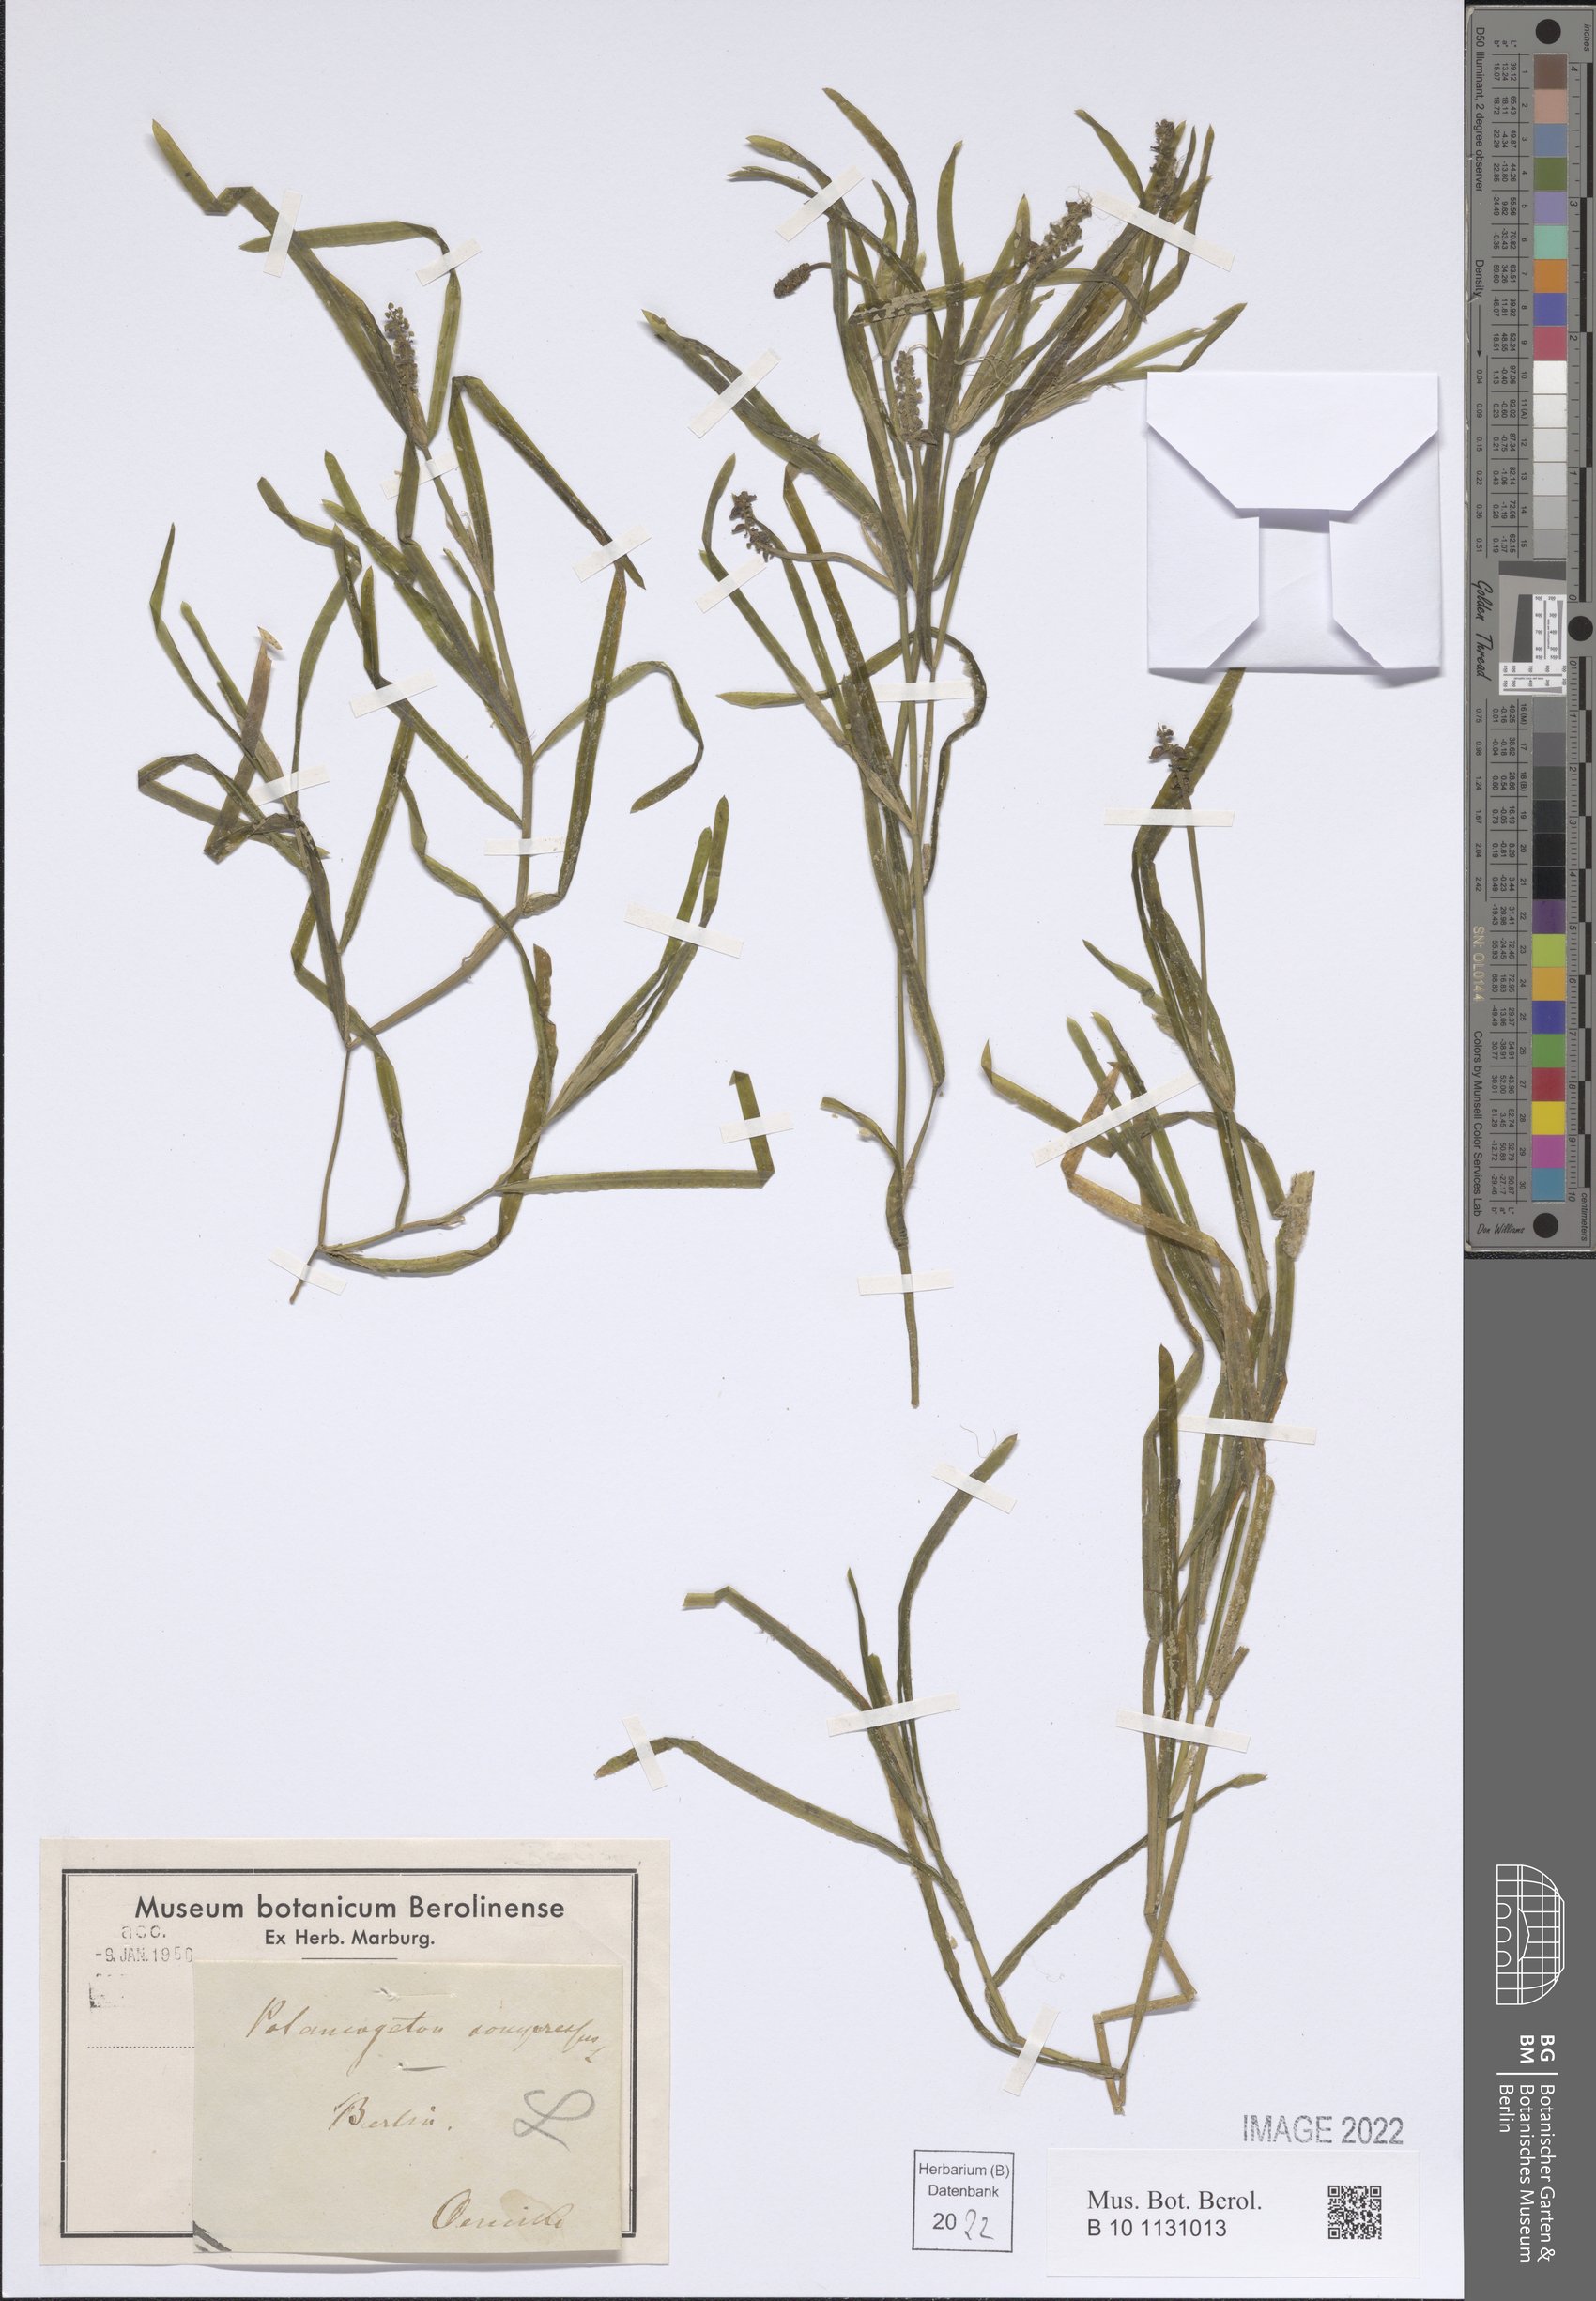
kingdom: Plantae
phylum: Tracheophyta
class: Liliopsida
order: Alismatales
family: Potamogetonaceae
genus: Potamogeton
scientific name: Potamogeton compressus
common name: Grass-wrack pondweed
